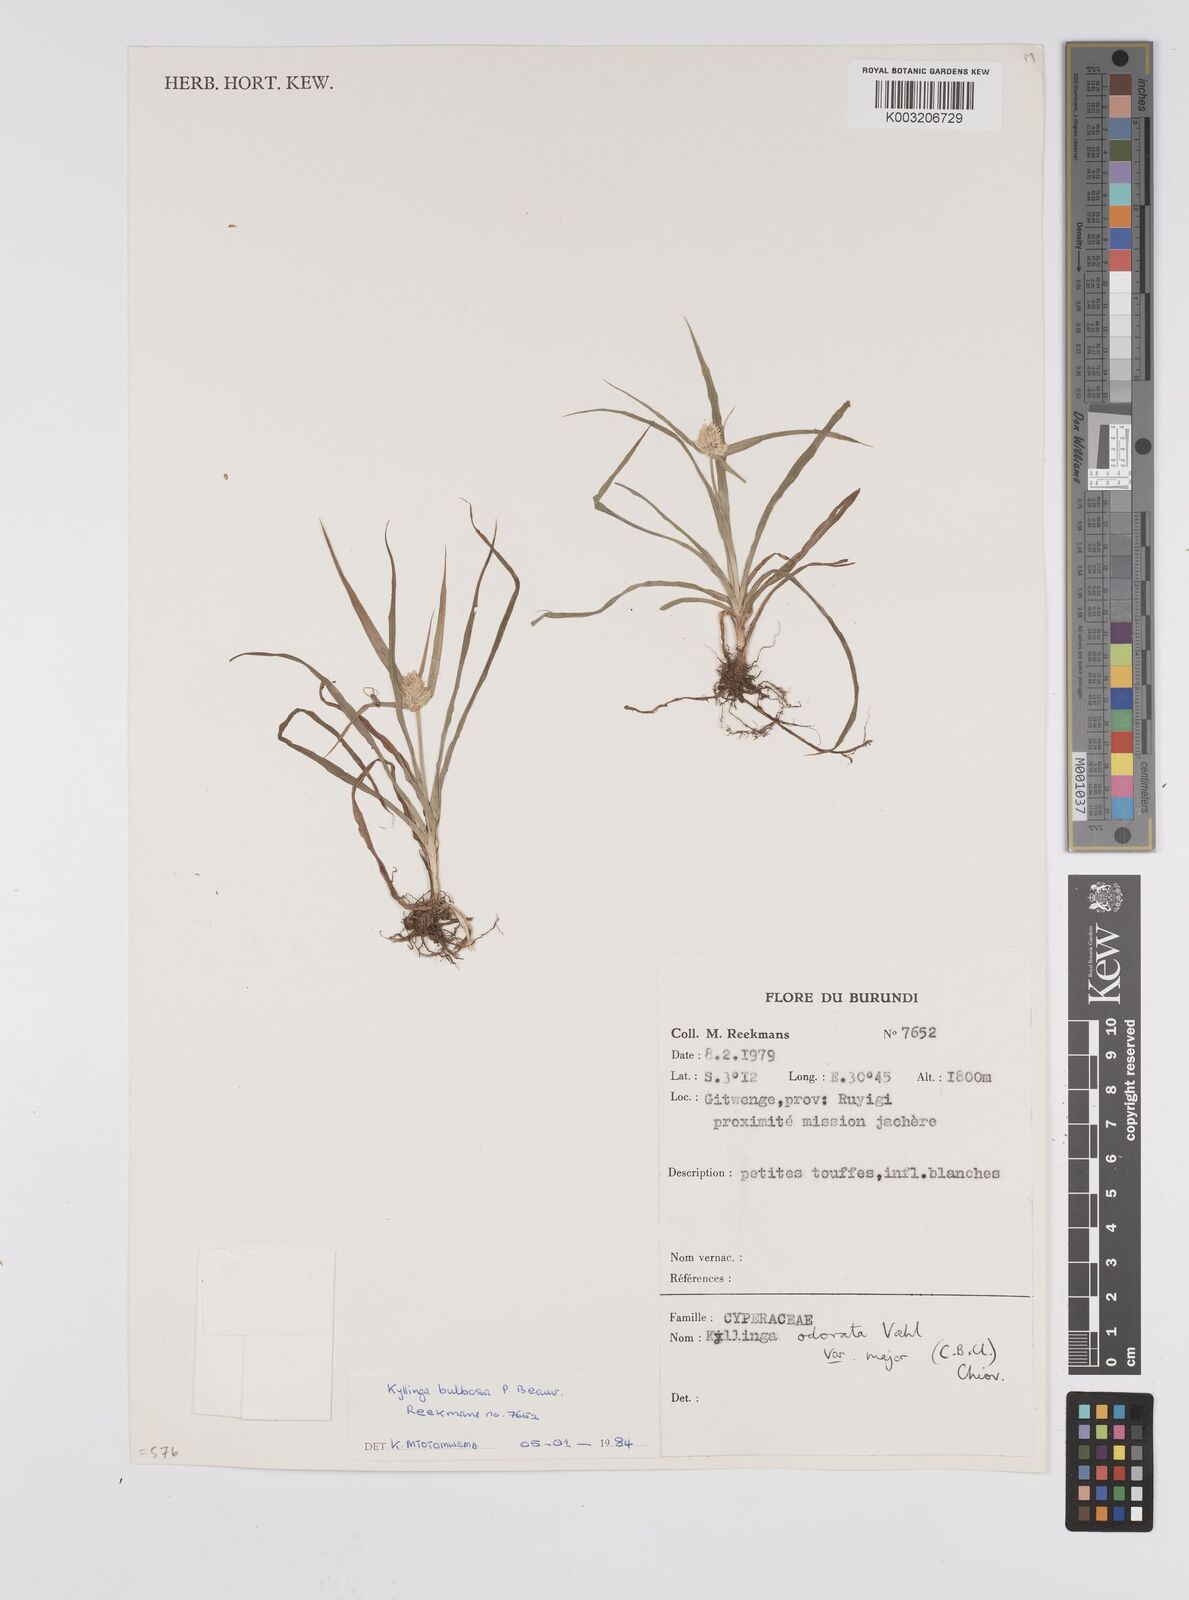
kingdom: Plantae
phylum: Tracheophyta
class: Liliopsida
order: Poales
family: Cyperaceae
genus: Cyperus
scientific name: Cyperus
